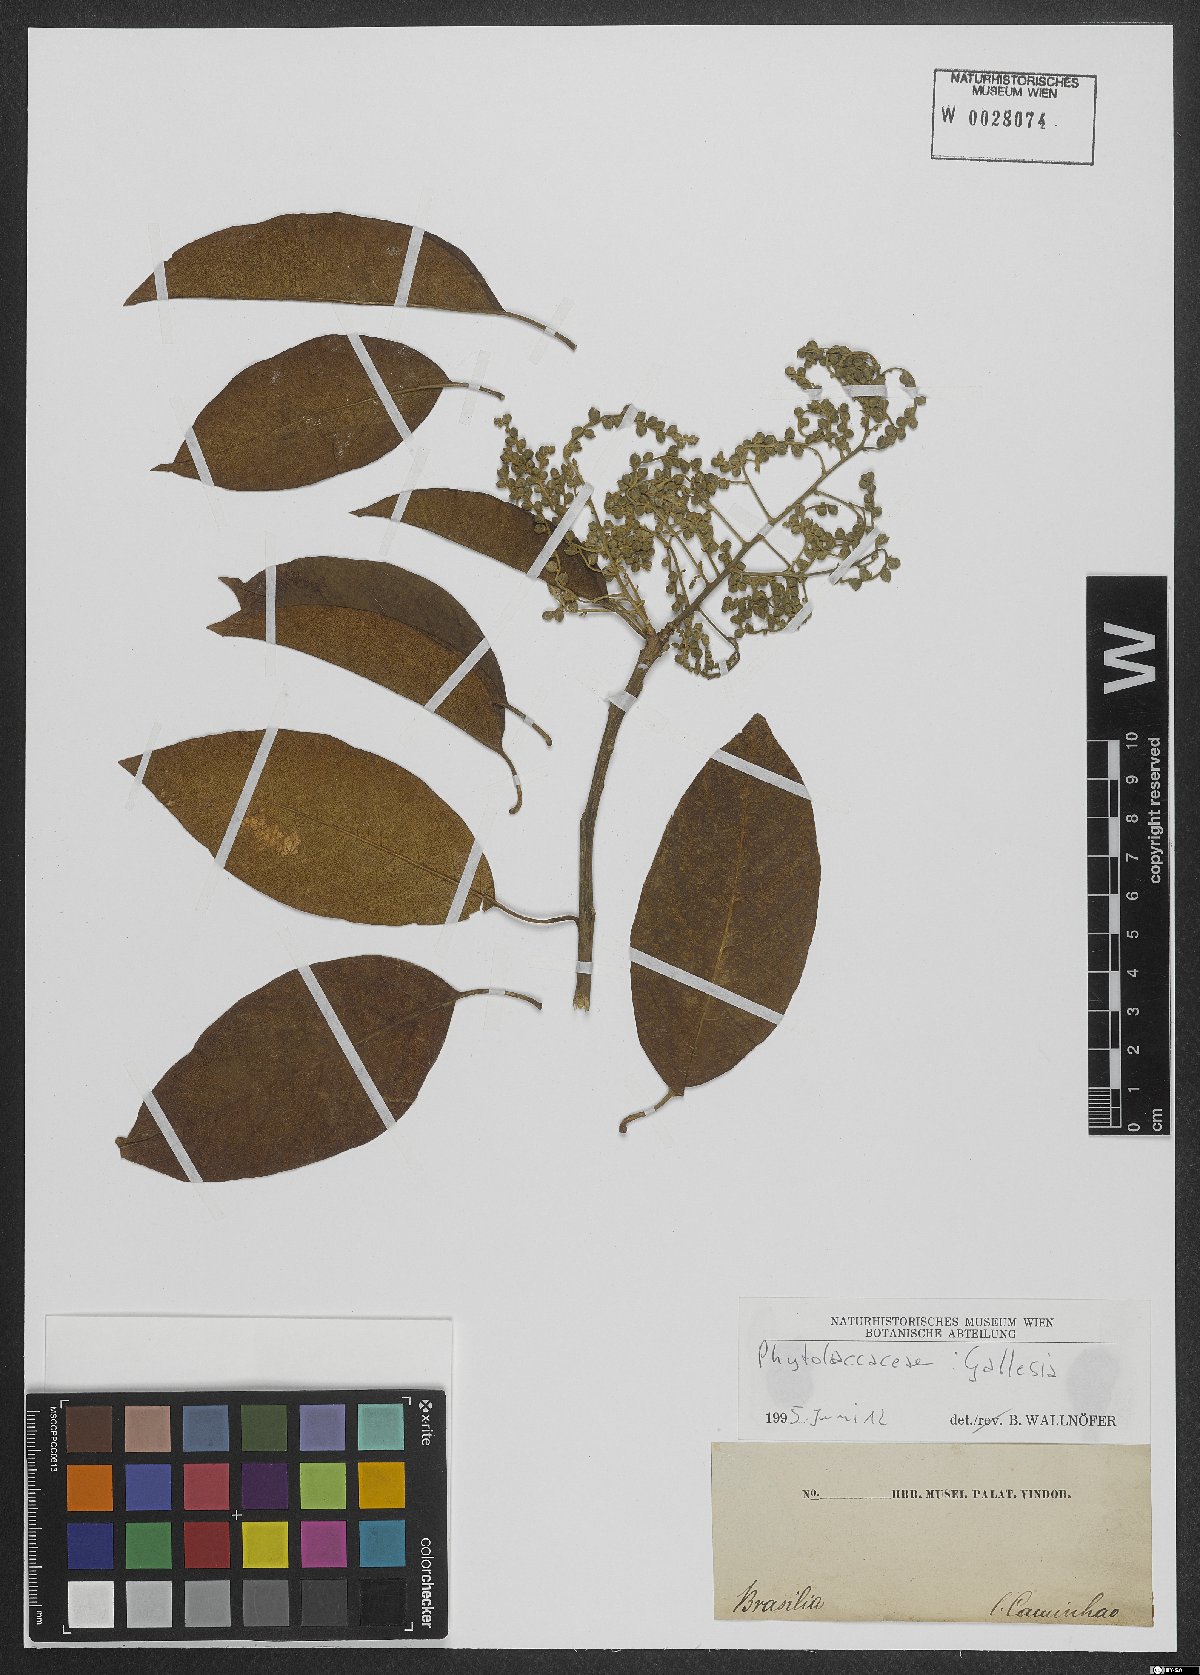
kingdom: Plantae
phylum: Tracheophyta
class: Magnoliopsida
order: Caryophyllales
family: Phytolaccaceae
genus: Gallesia
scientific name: Gallesia
